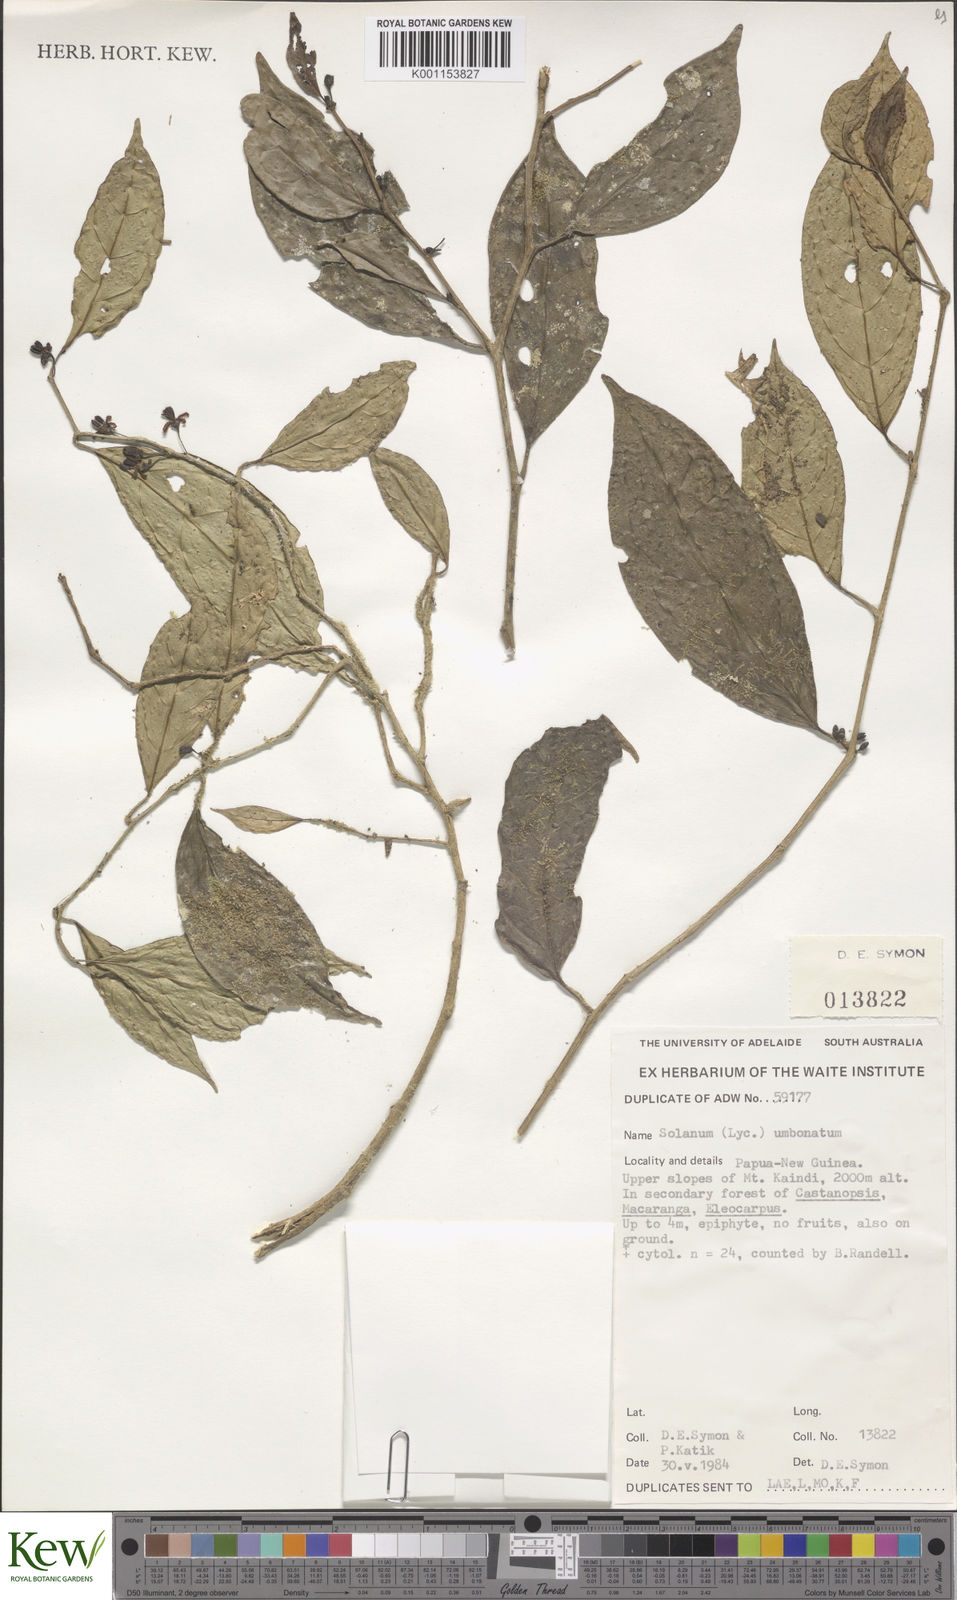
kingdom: Plantae
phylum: Tracheophyta
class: Magnoliopsida
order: Solanales
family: Solanaceae
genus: Lycianthes
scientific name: Lycianthes bambusarum
